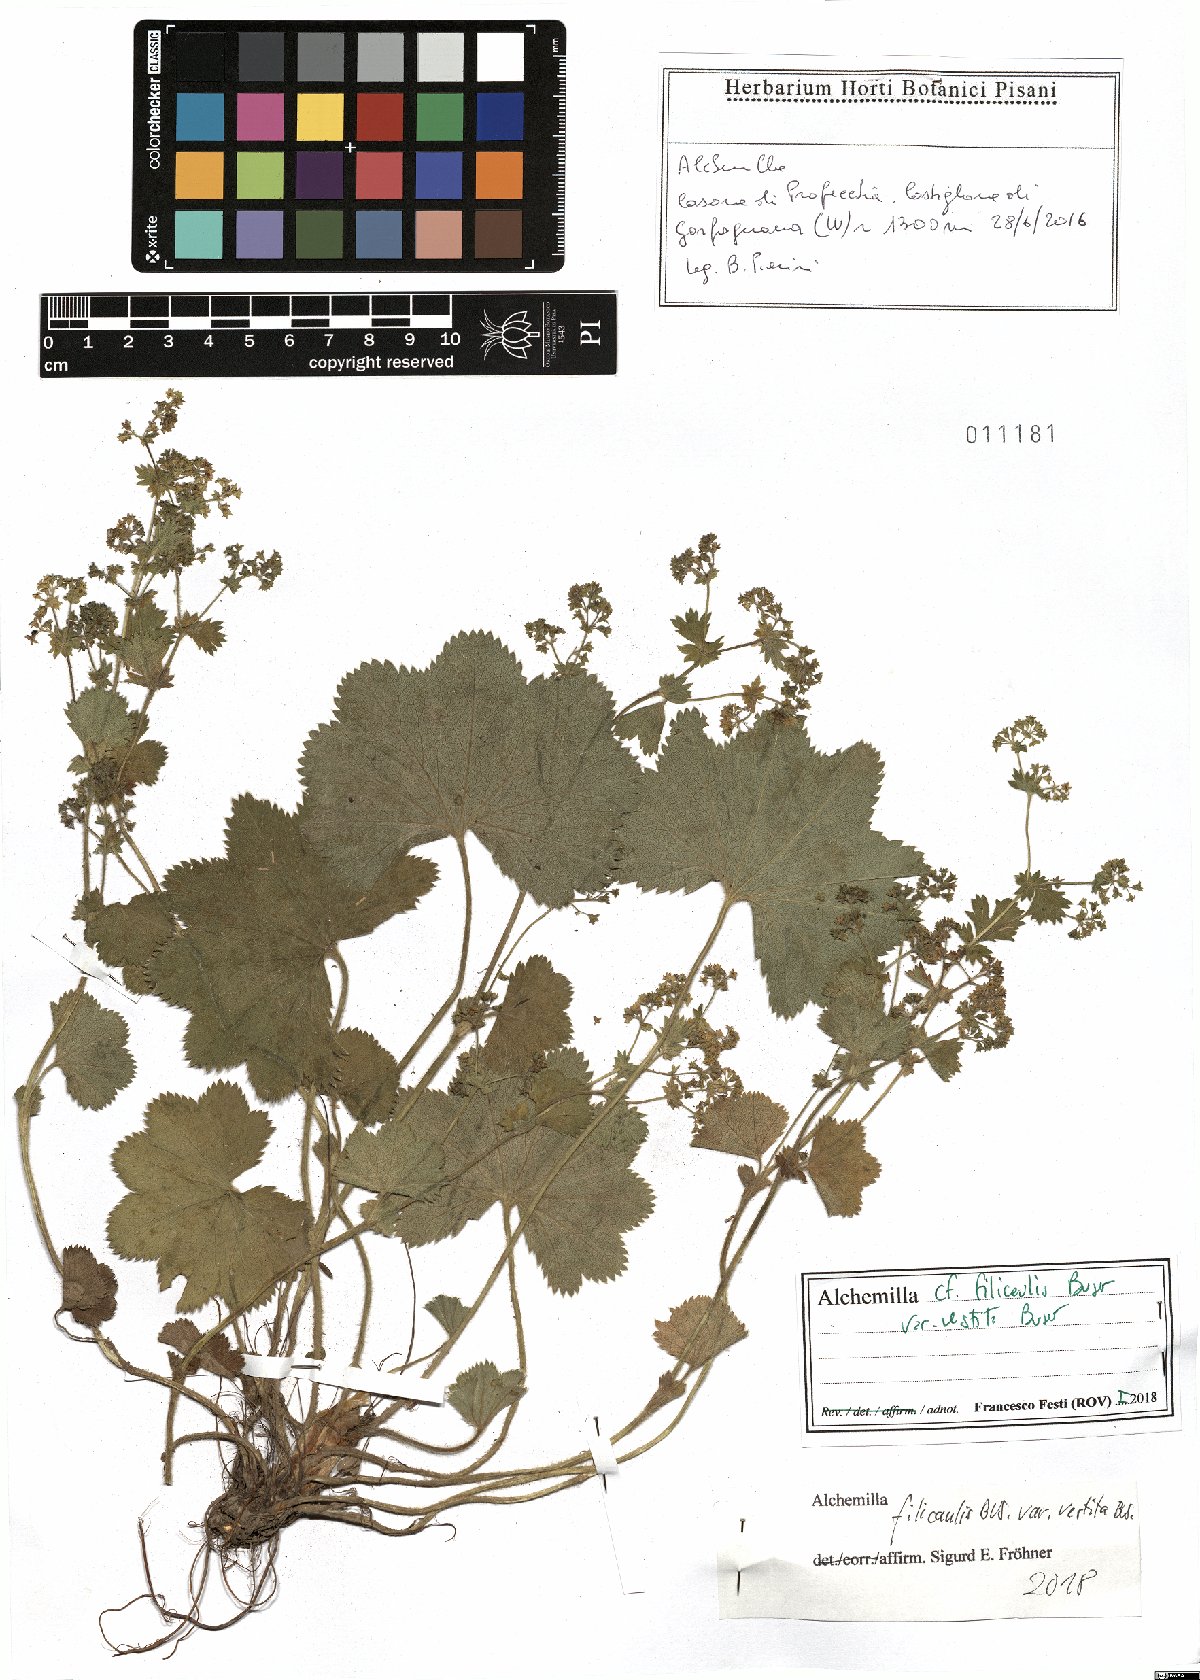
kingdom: Plantae
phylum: Tracheophyta
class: Magnoliopsida
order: Rosales
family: Rosaceae
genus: Alchemilla
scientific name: Alchemilla filicaulis
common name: Hairy lady's-mantle
